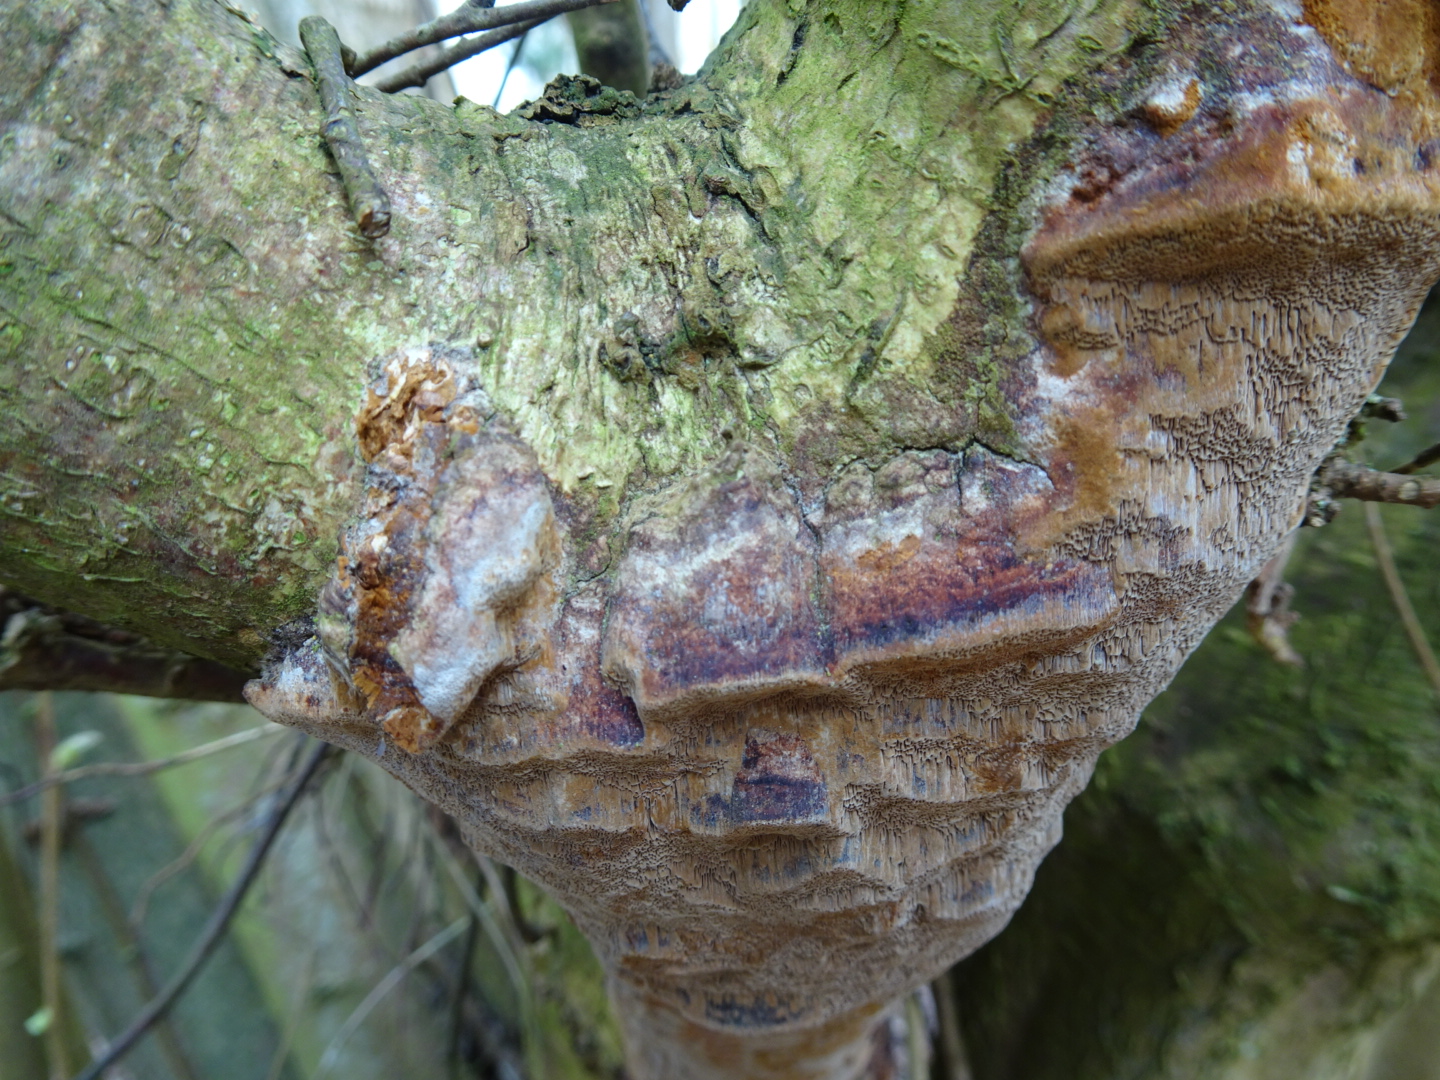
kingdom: Fungi
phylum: Basidiomycota
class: Agaricomycetes
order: Hymenochaetales
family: Hymenochaetaceae
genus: Fuscoporia
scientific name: Fuscoporia ferrea
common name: skorpe-ildporesvamp
